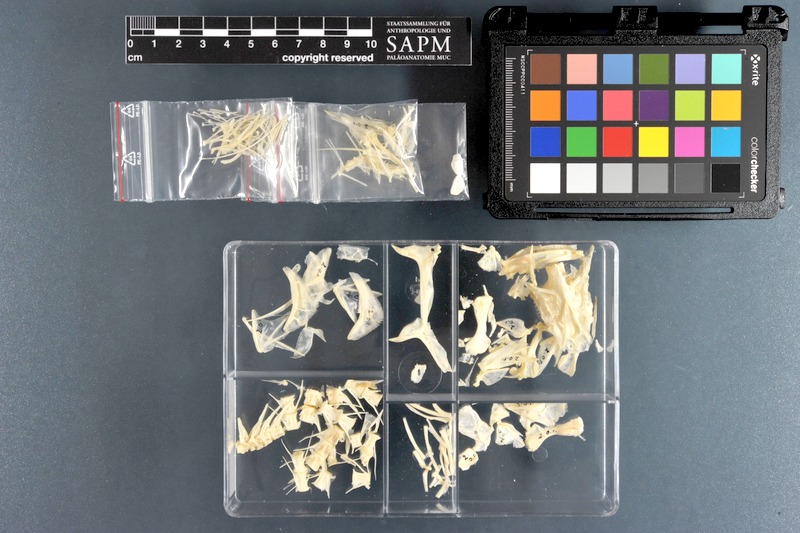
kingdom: Animalia
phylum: Chordata
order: Perciformes
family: Sciaenidae
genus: Otolithes
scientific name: Otolithes ruber
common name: Croaker
